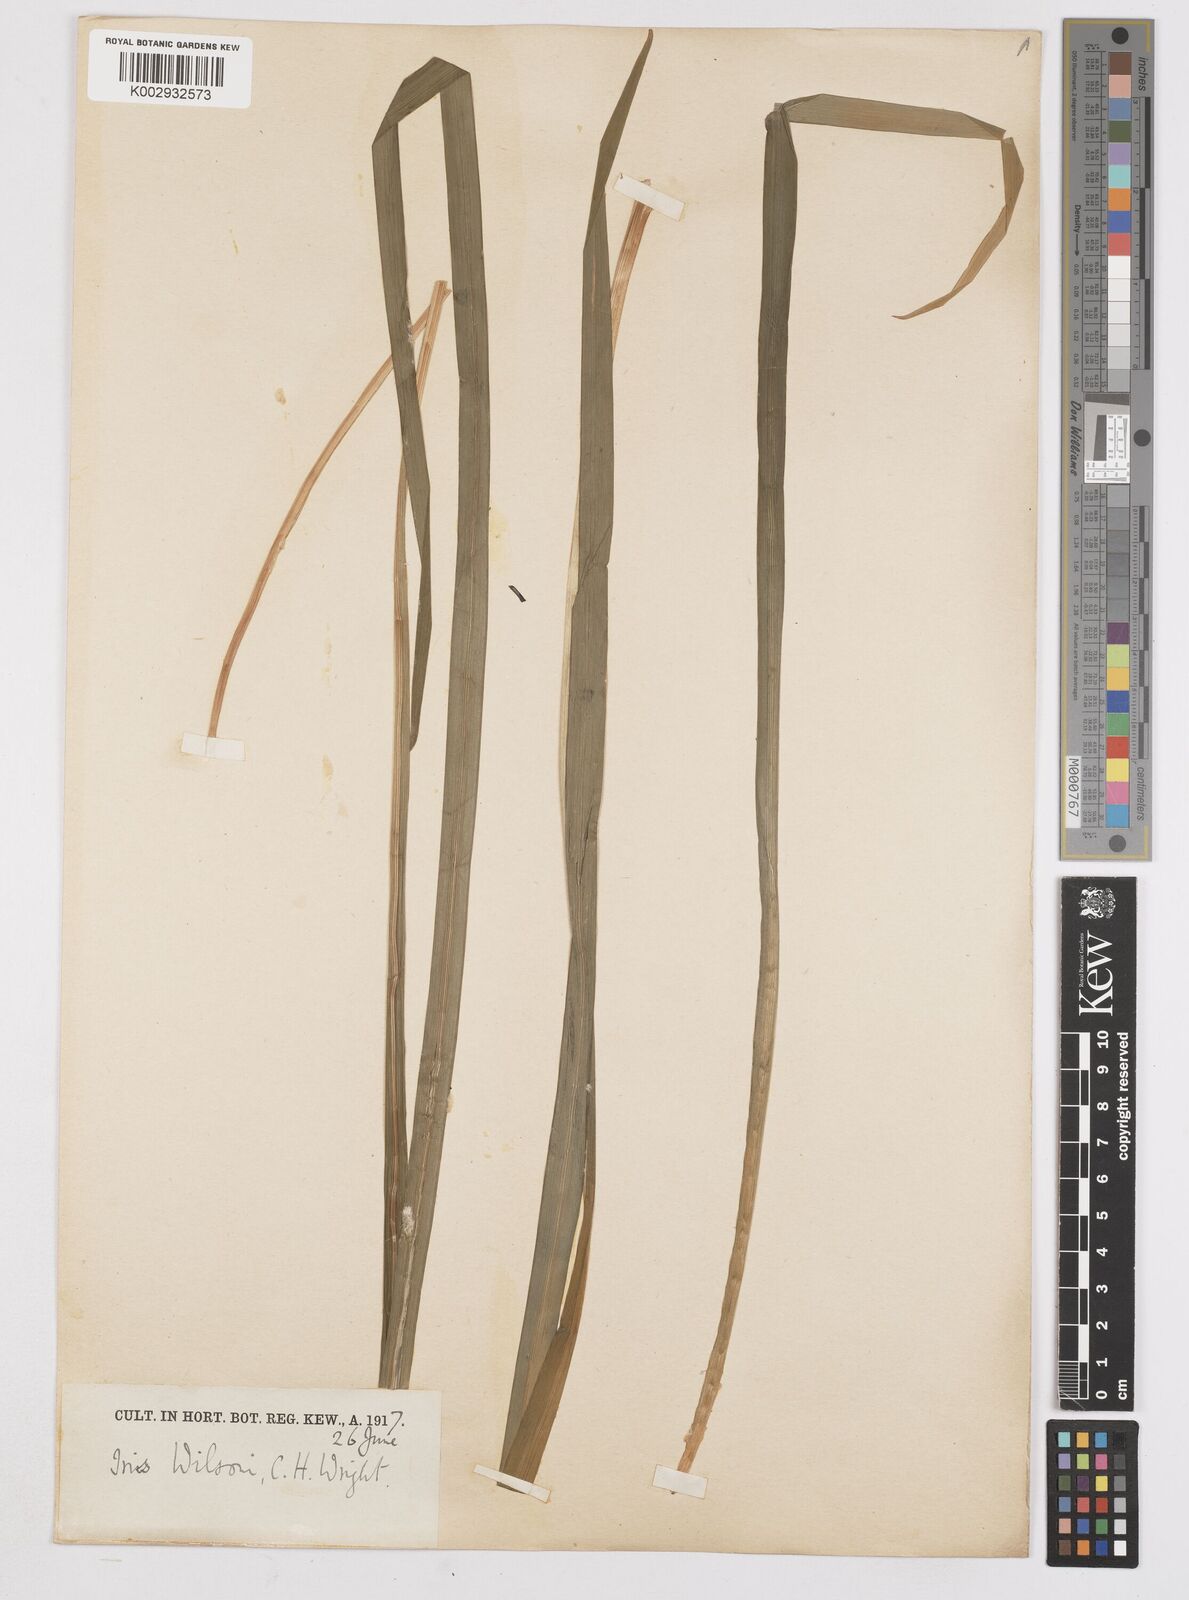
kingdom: Plantae
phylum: Tracheophyta
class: Liliopsida
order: Asparagales
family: Iridaceae
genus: Iris
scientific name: Iris wilsonii
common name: Yellow-flower iris
